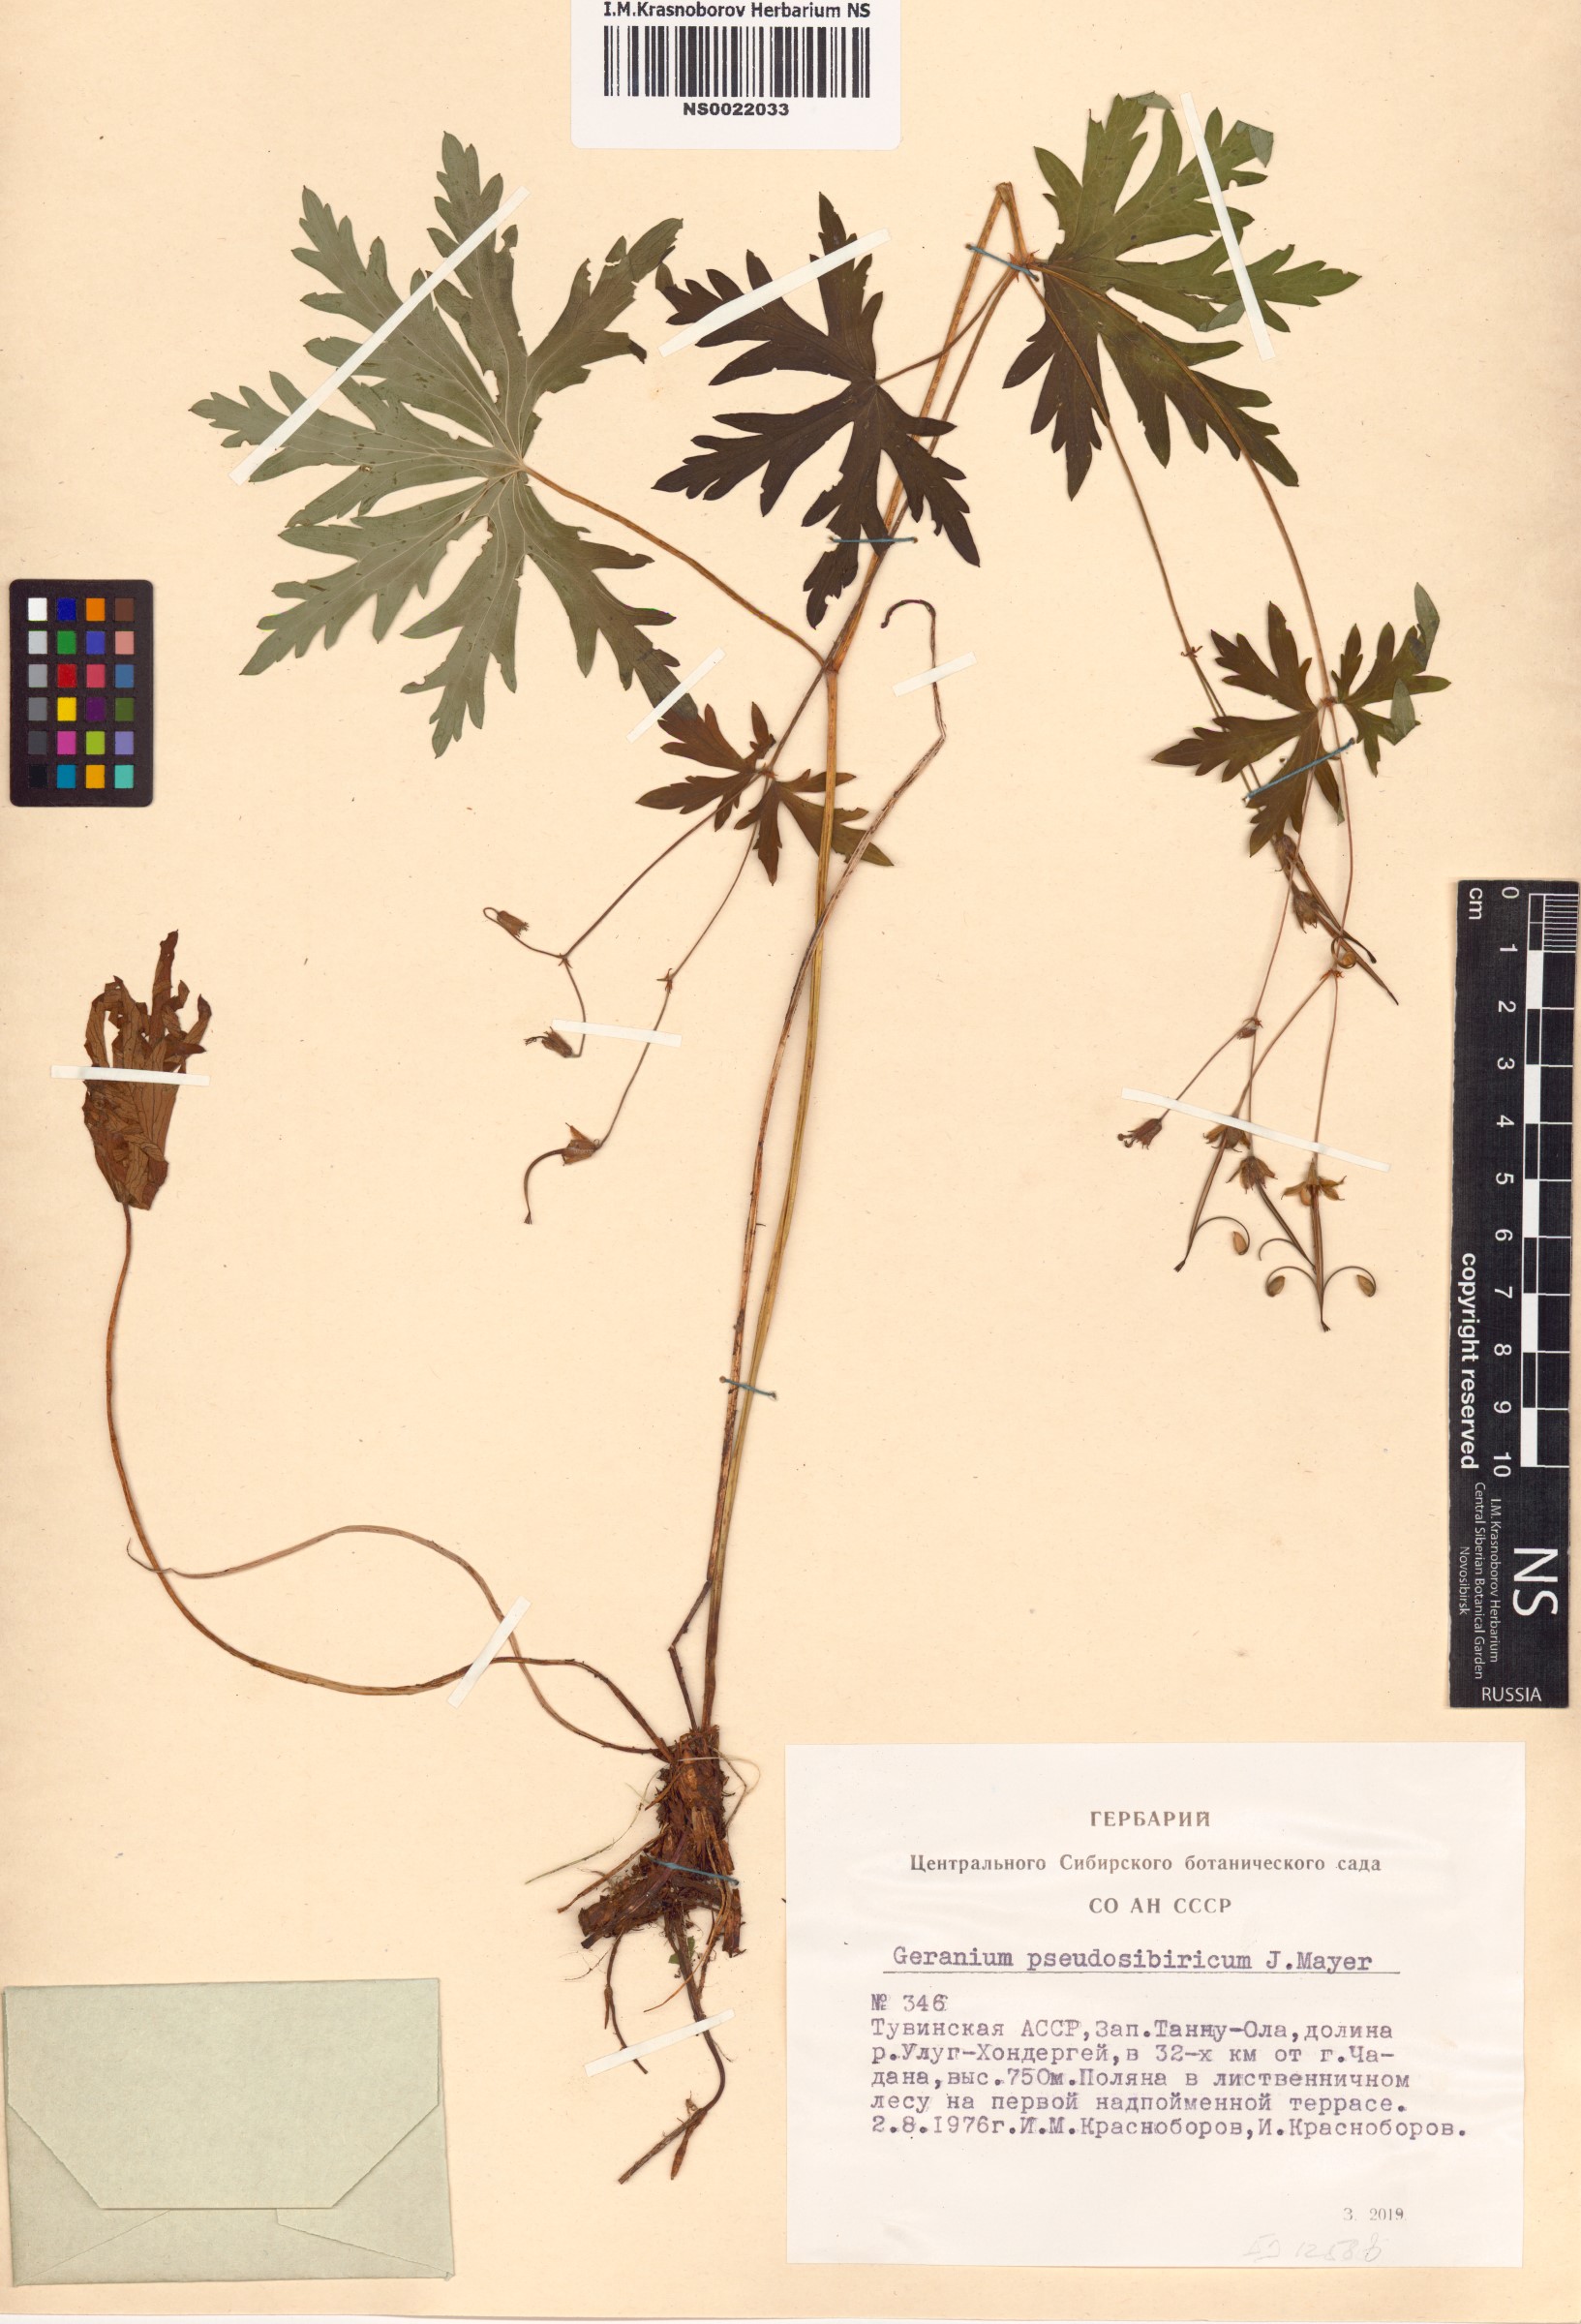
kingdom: Plantae
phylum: Tracheophyta
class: Magnoliopsida
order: Geraniales
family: Geraniaceae
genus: Geranium
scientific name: Geranium pseudosibiricum
